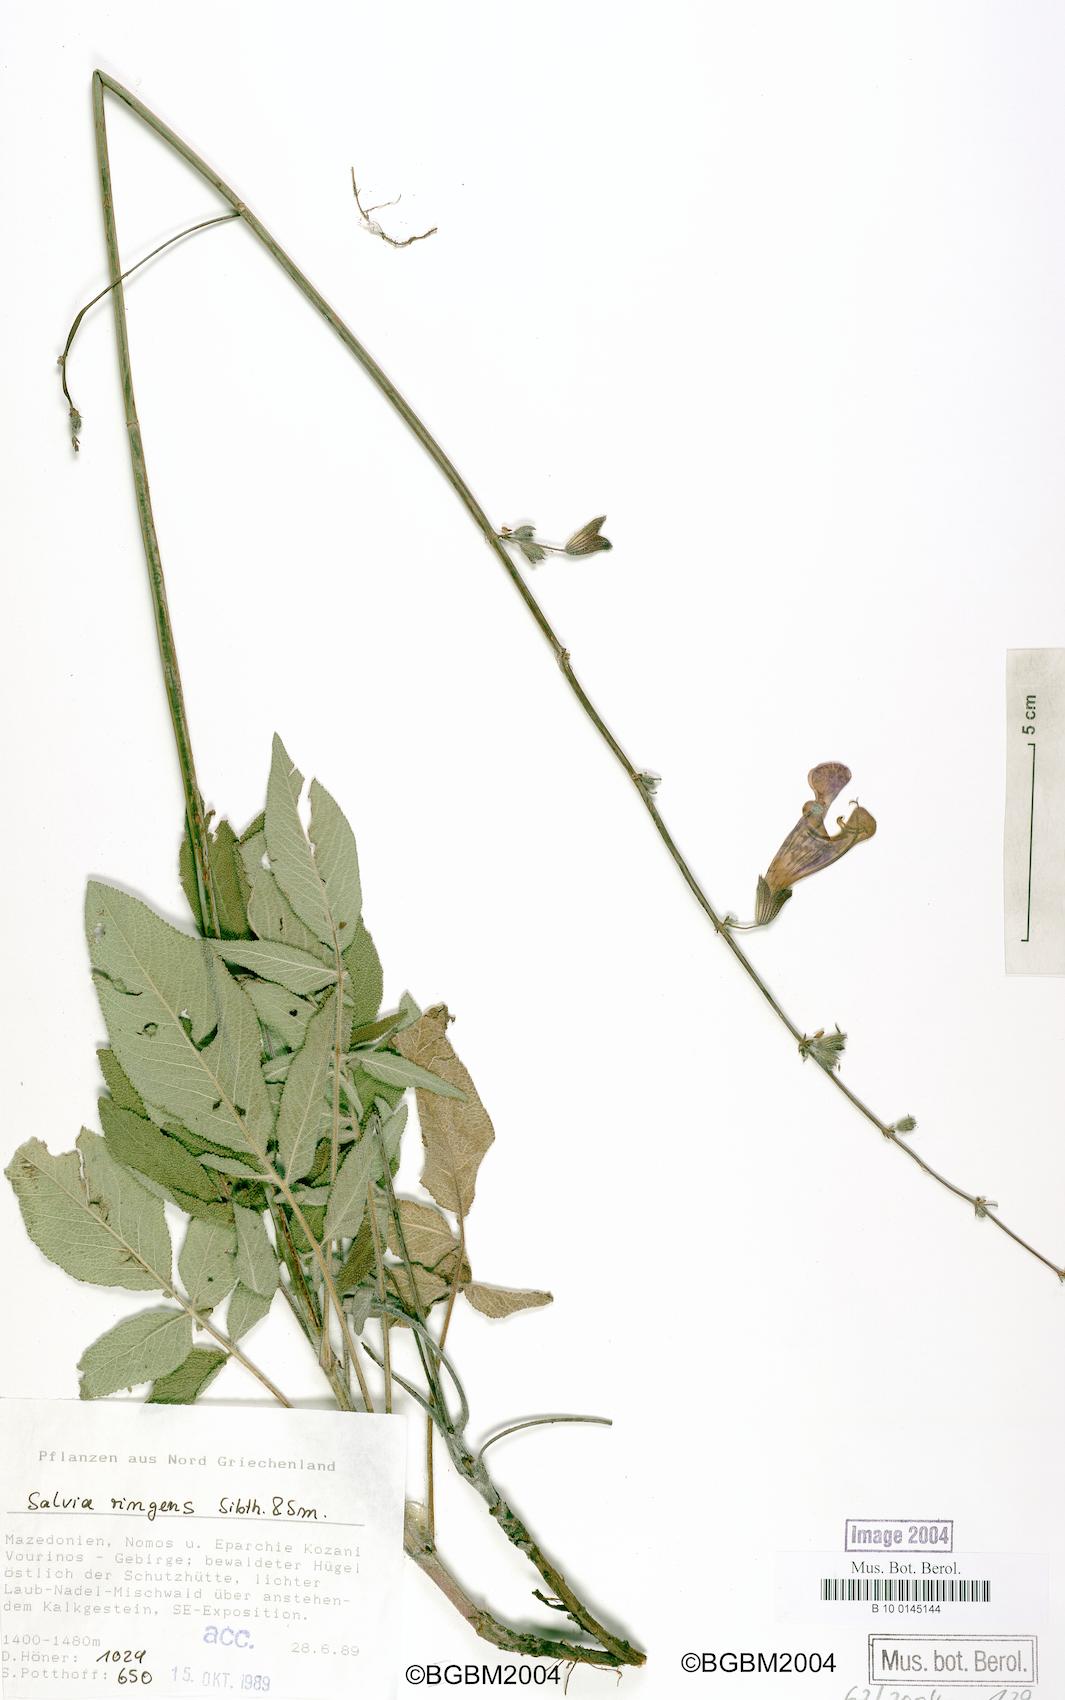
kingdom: Plantae
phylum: Tracheophyta
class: Magnoliopsida
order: Lamiales
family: Lamiaceae
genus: Salvia
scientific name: Salvia ringens
